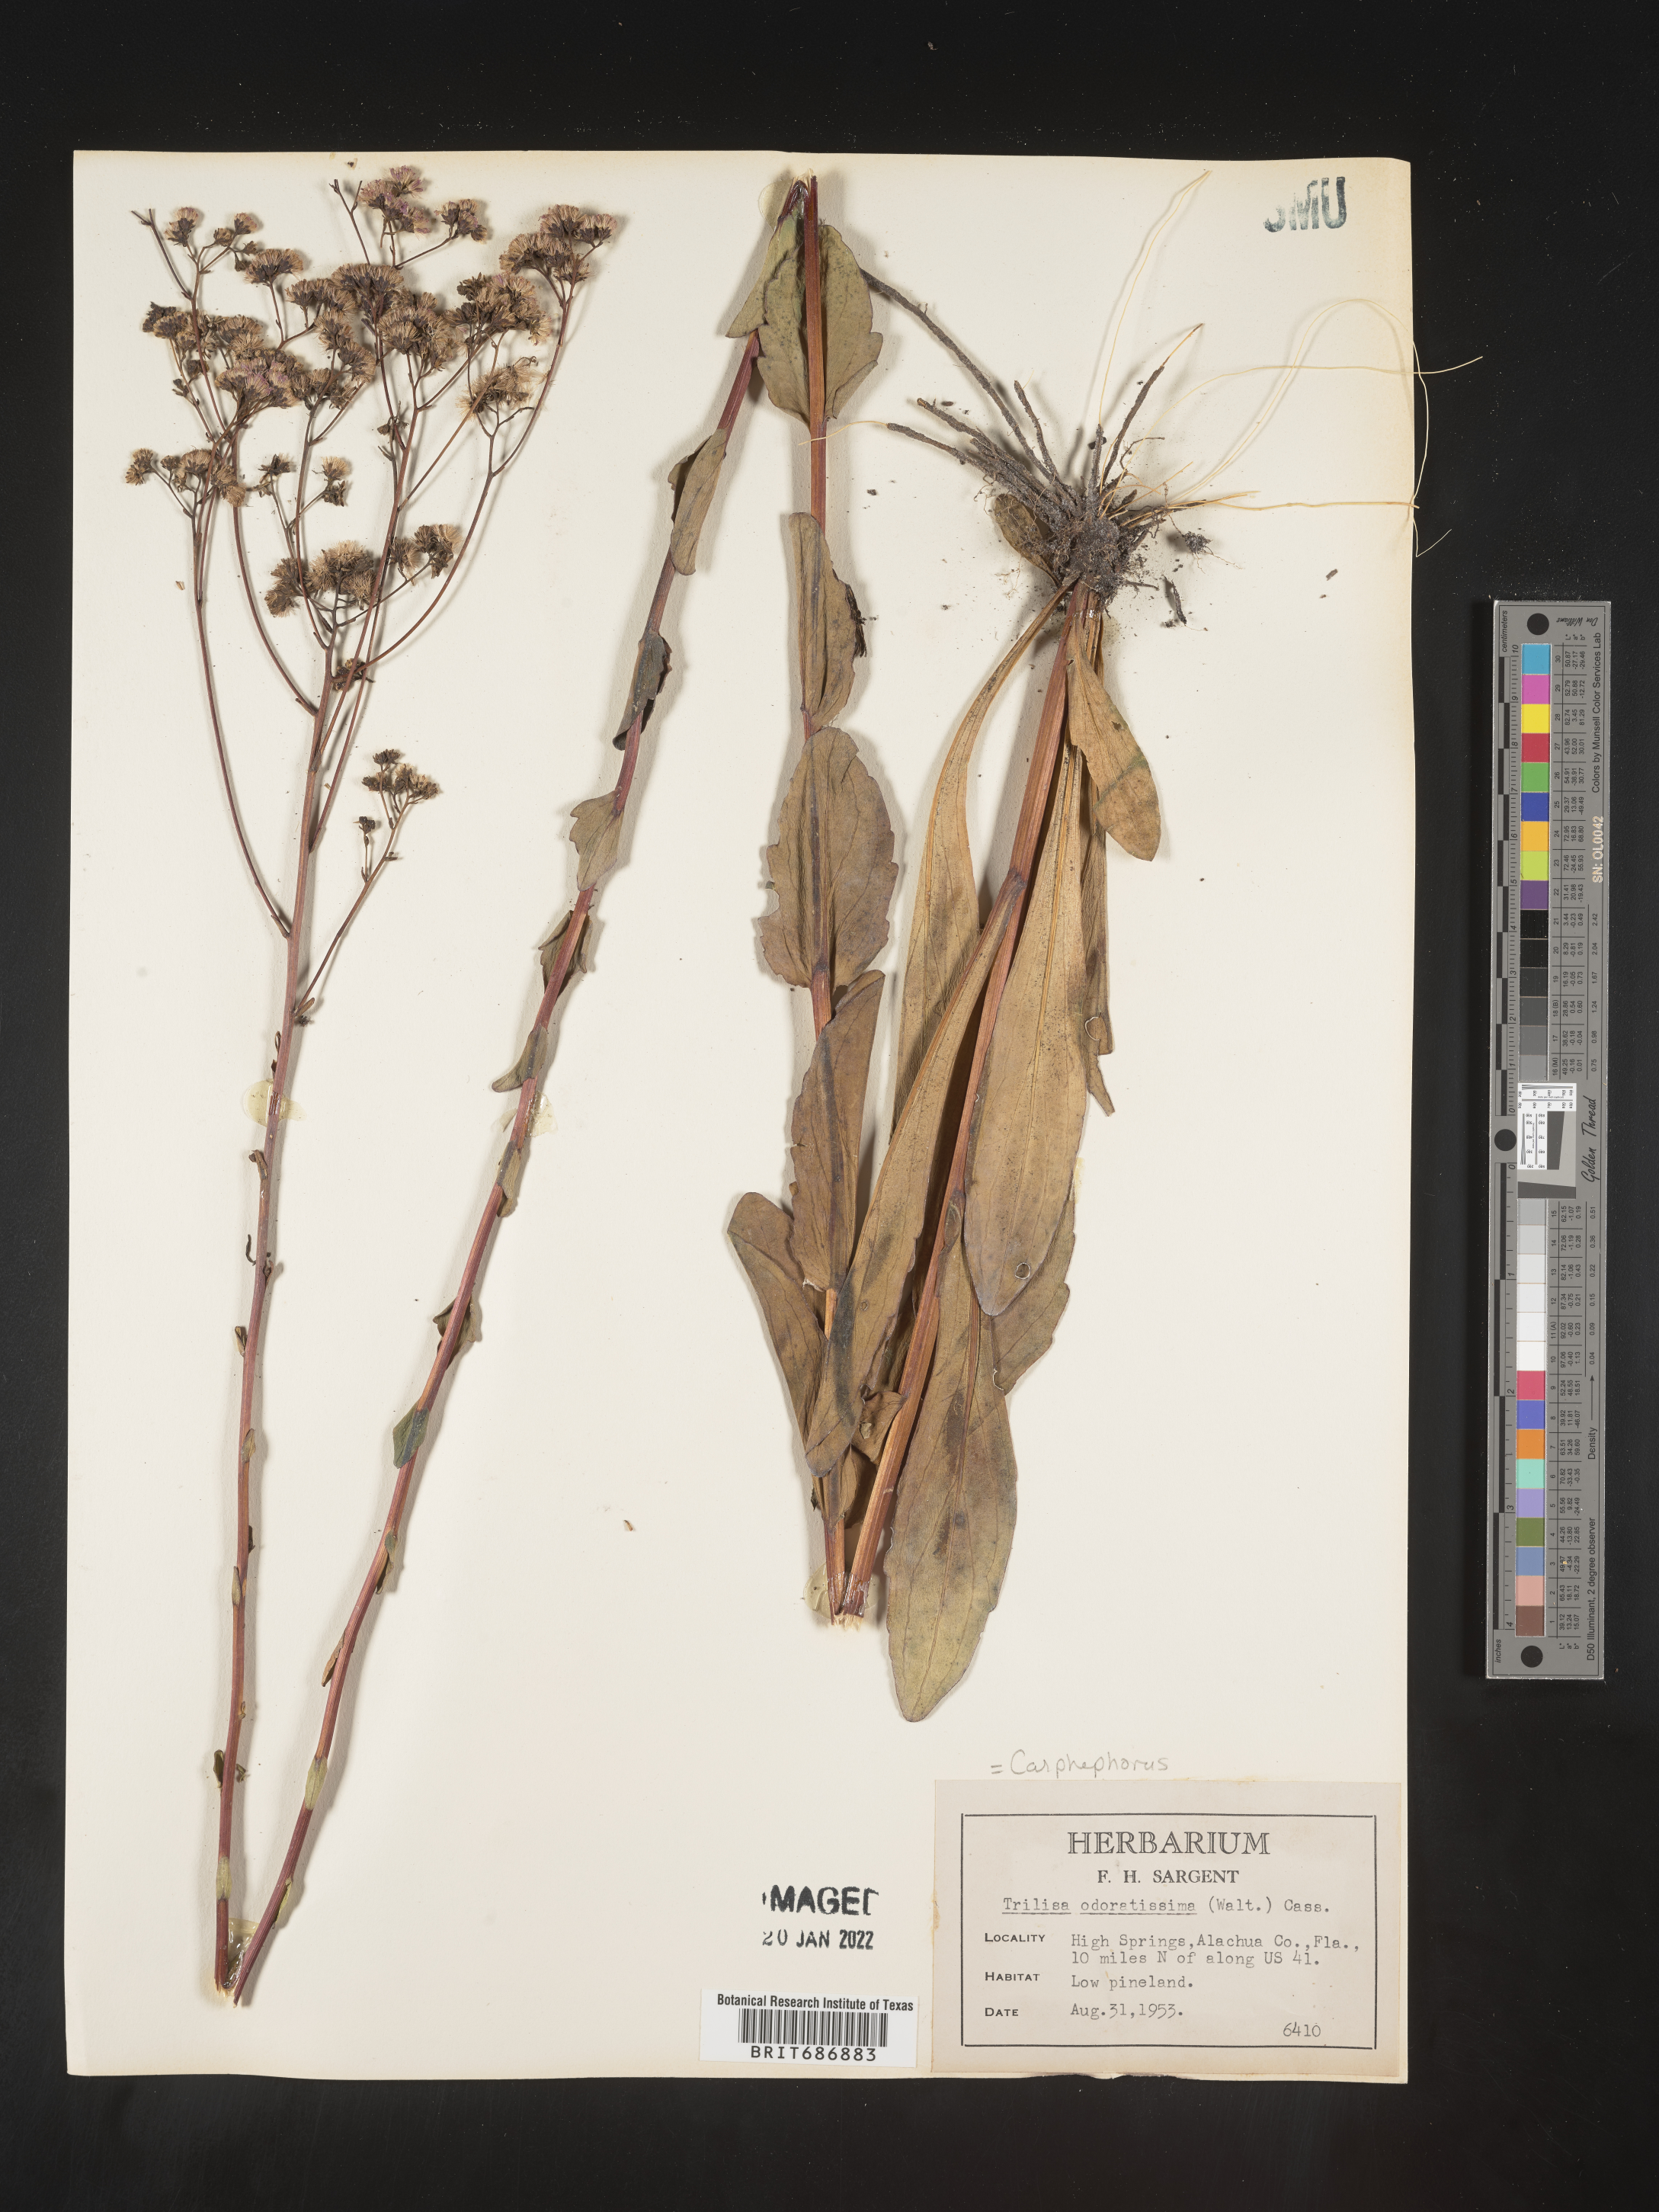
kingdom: Plantae
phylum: Tracheophyta
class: Magnoliopsida
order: Asterales
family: Asteraceae
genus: Carphephorus
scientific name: Carphephorus odoratissimus
